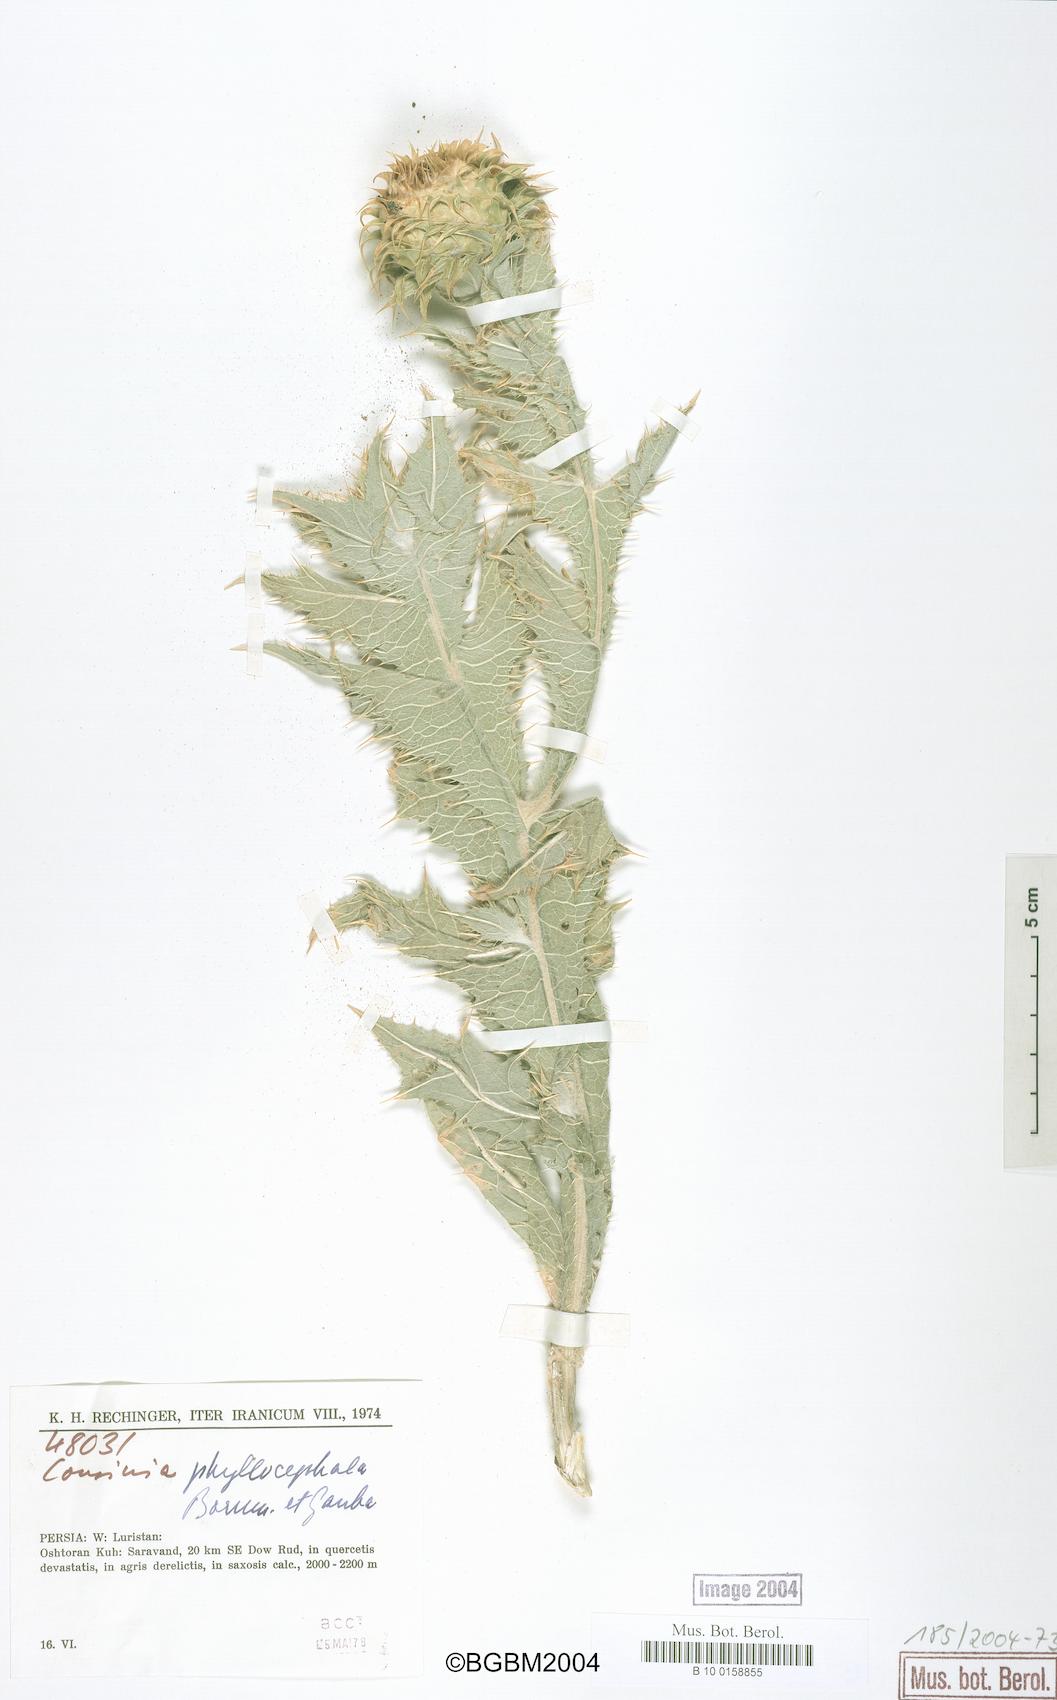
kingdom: Plantae
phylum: Tracheophyta
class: Magnoliopsida
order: Asterales
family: Asteraceae
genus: Cousinia
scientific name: Cousinia phyllocephala
